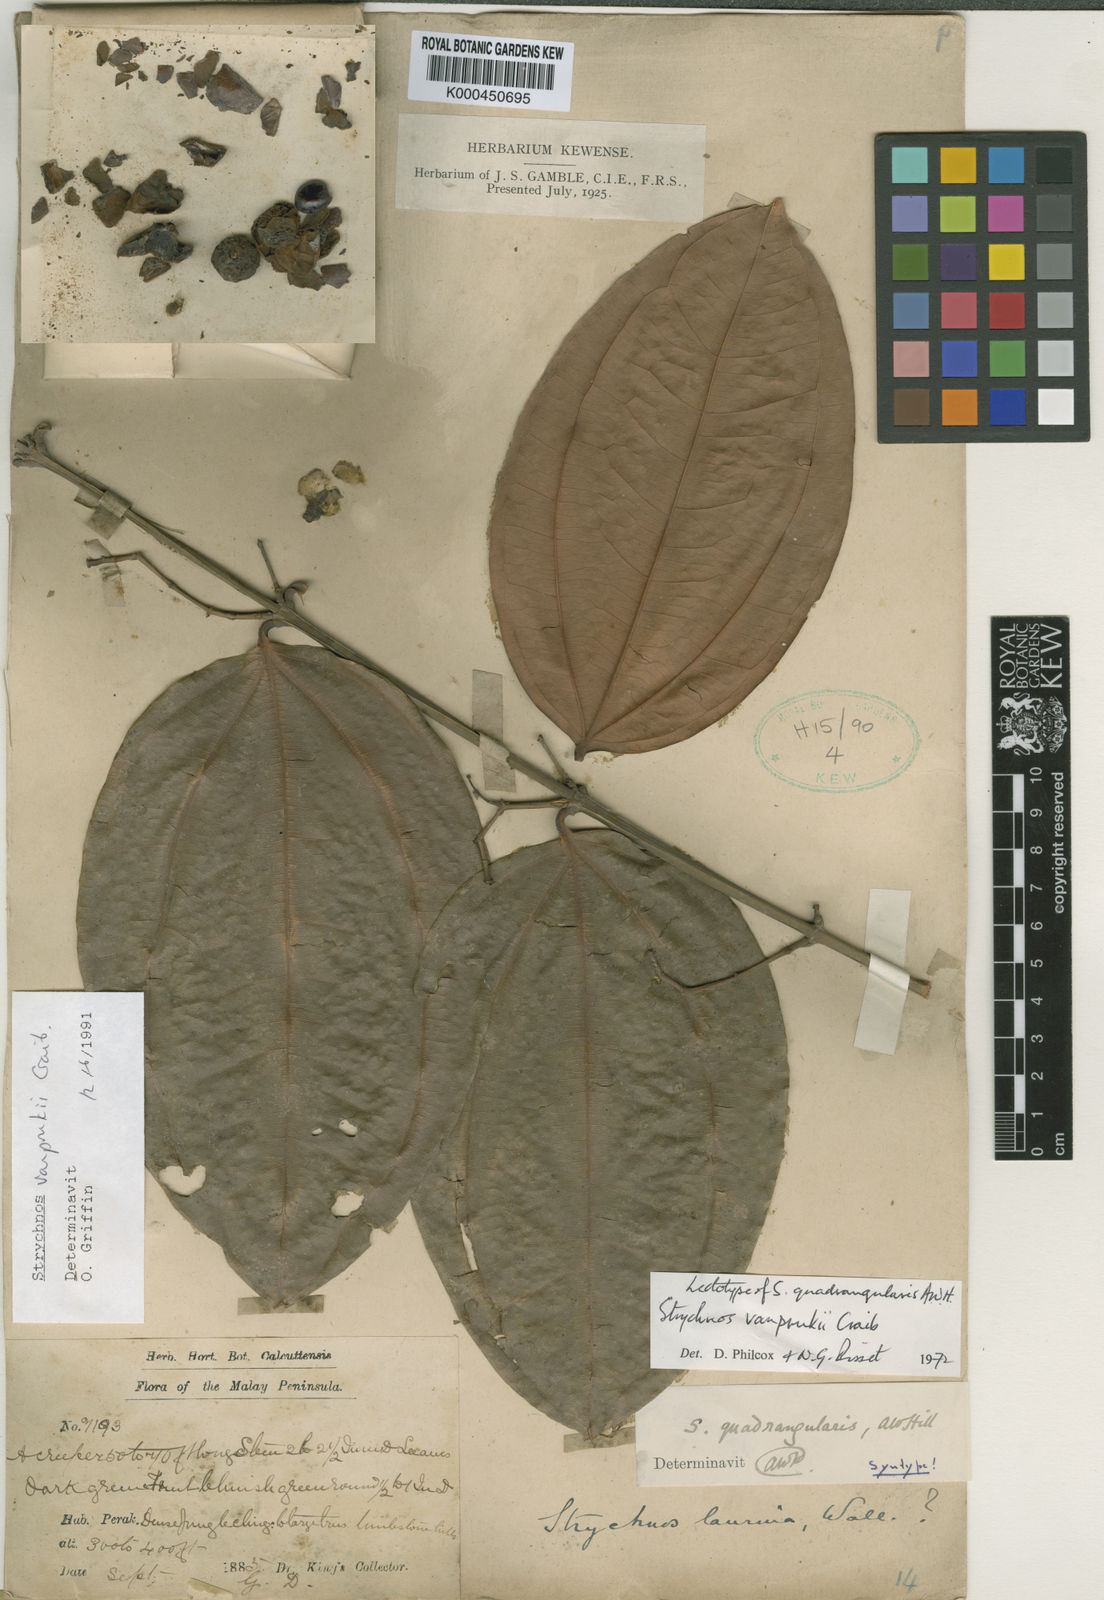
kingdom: Plantae
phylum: Tracheophyta
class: Magnoliopsida
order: Gentianales
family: Loganiaceae
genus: Strychnos
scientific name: Strychnos vanprukii
